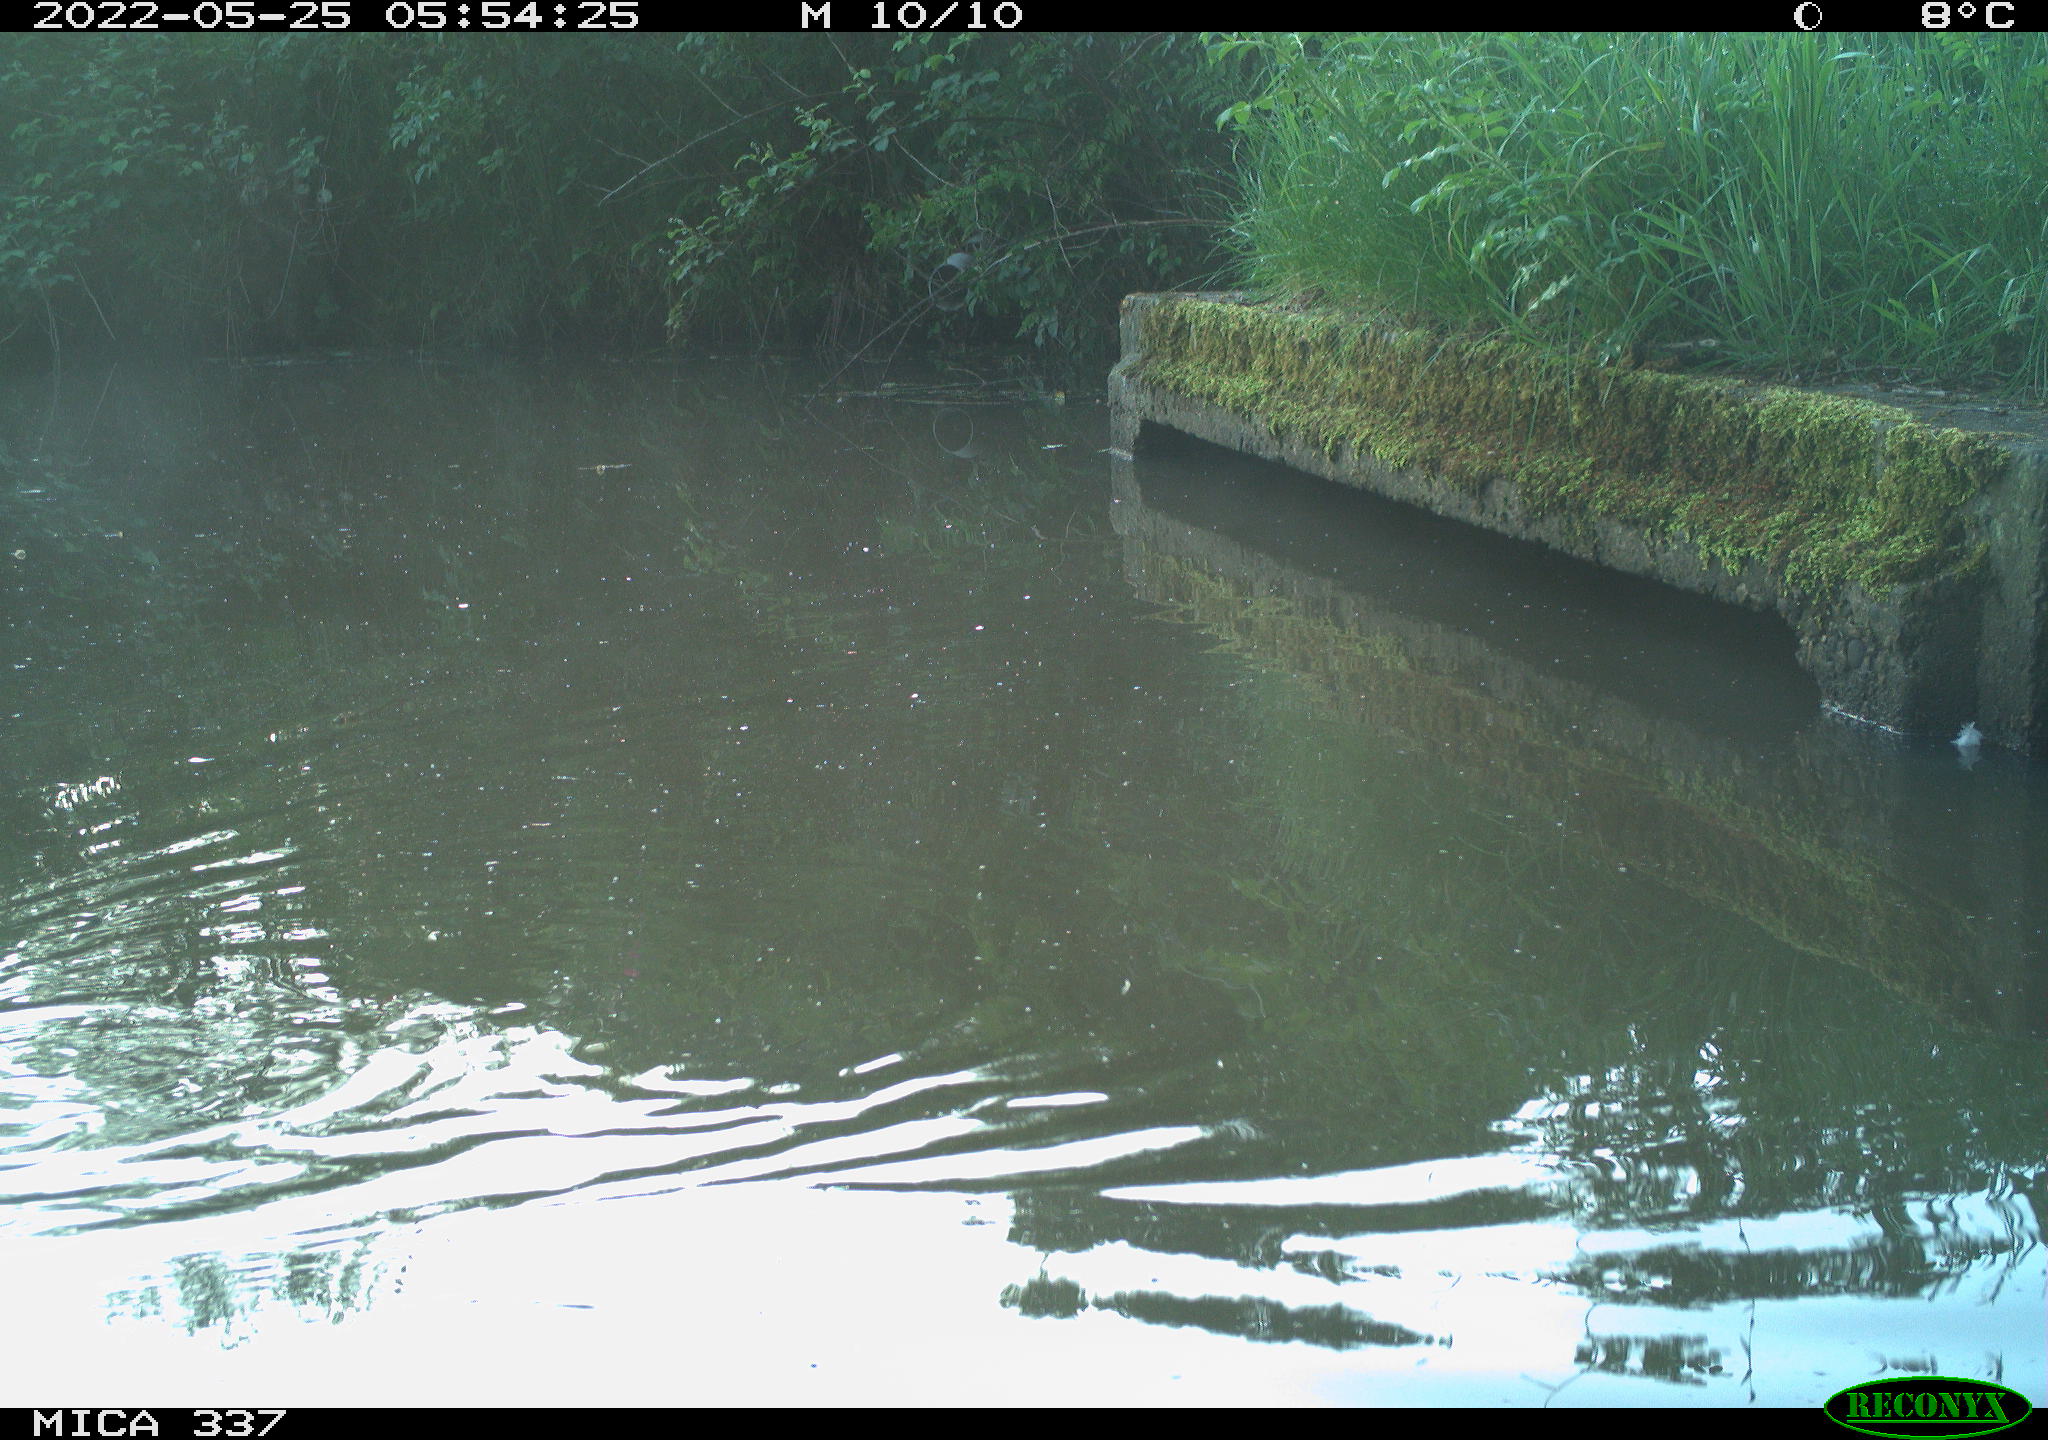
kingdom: Animalia
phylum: Chordata
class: Aves
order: Gruiformes
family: Rallidae
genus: Gallinula
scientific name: Gallinula chloropus
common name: Common moorhen
